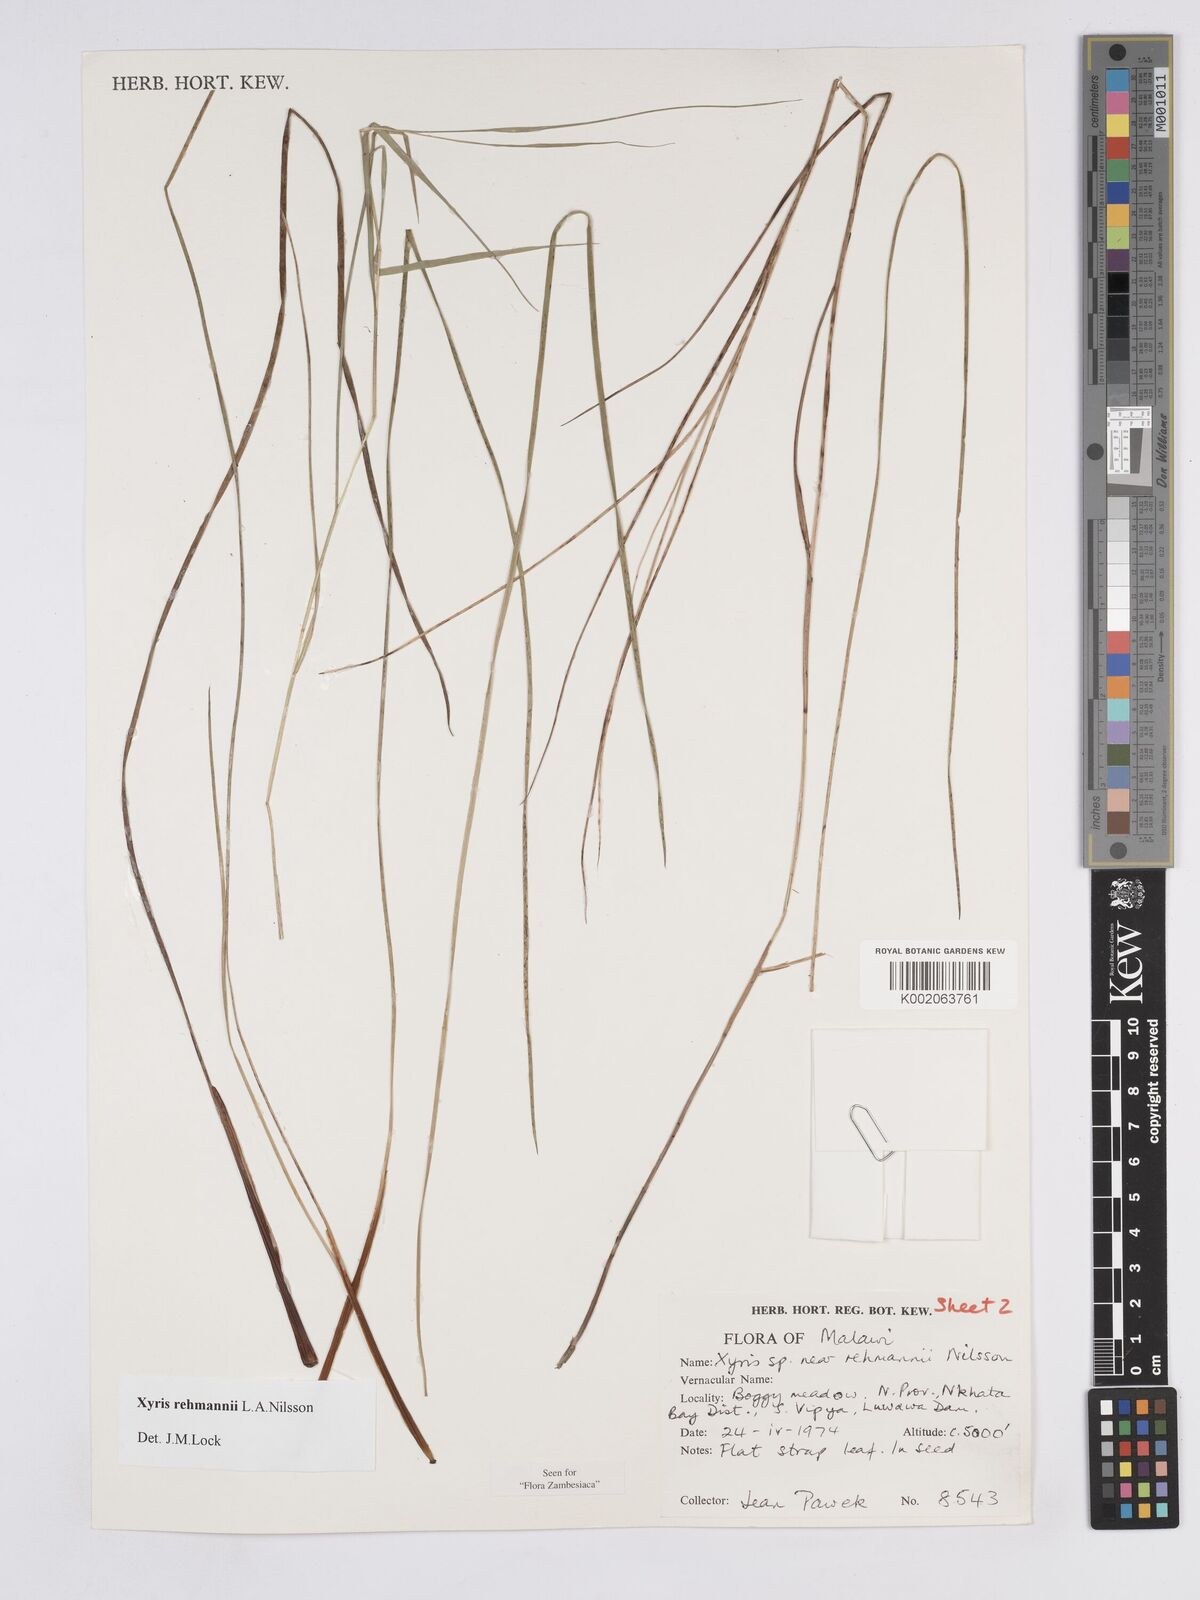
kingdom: Plantae
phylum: Tracheophyta
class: Liliopsida
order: Poales
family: Xyridaceae
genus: Xyris
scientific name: Xyris rehmannii
